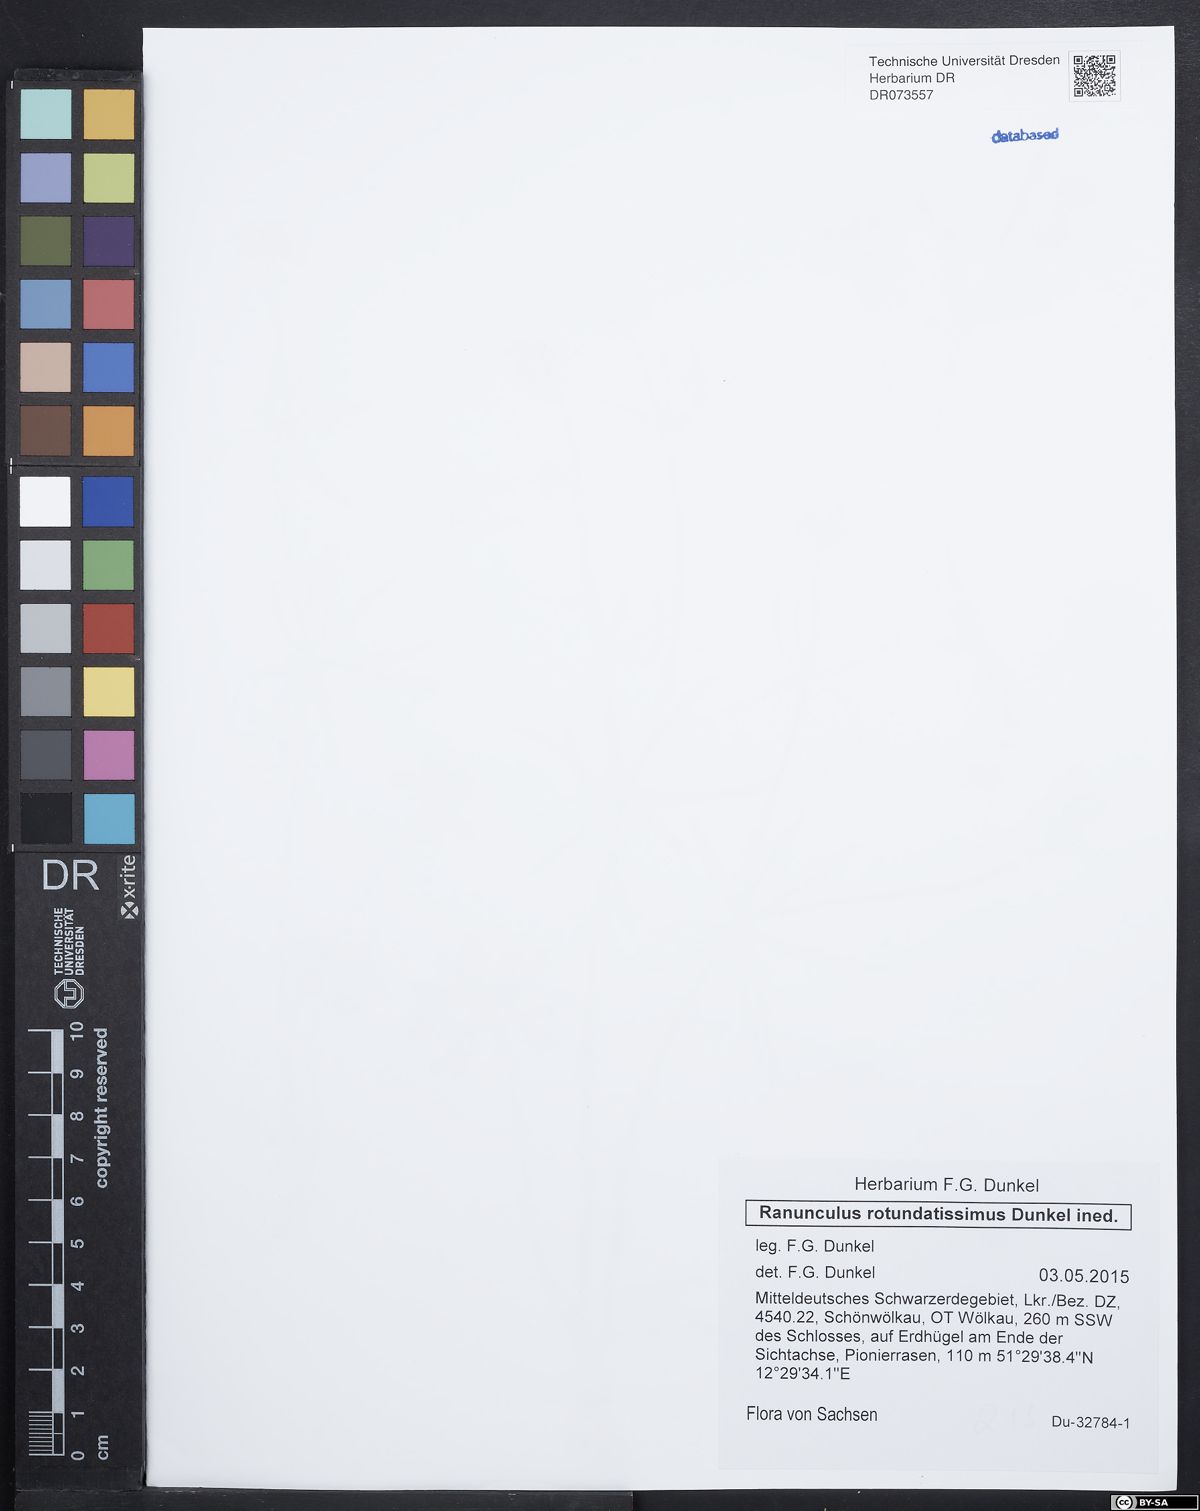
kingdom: Plantae
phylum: Tracheophyta
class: Magnoliopsida
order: Ranunculales
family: Ranunculaceae
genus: Ranunculus
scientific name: Ranunculus rotundatissimus
